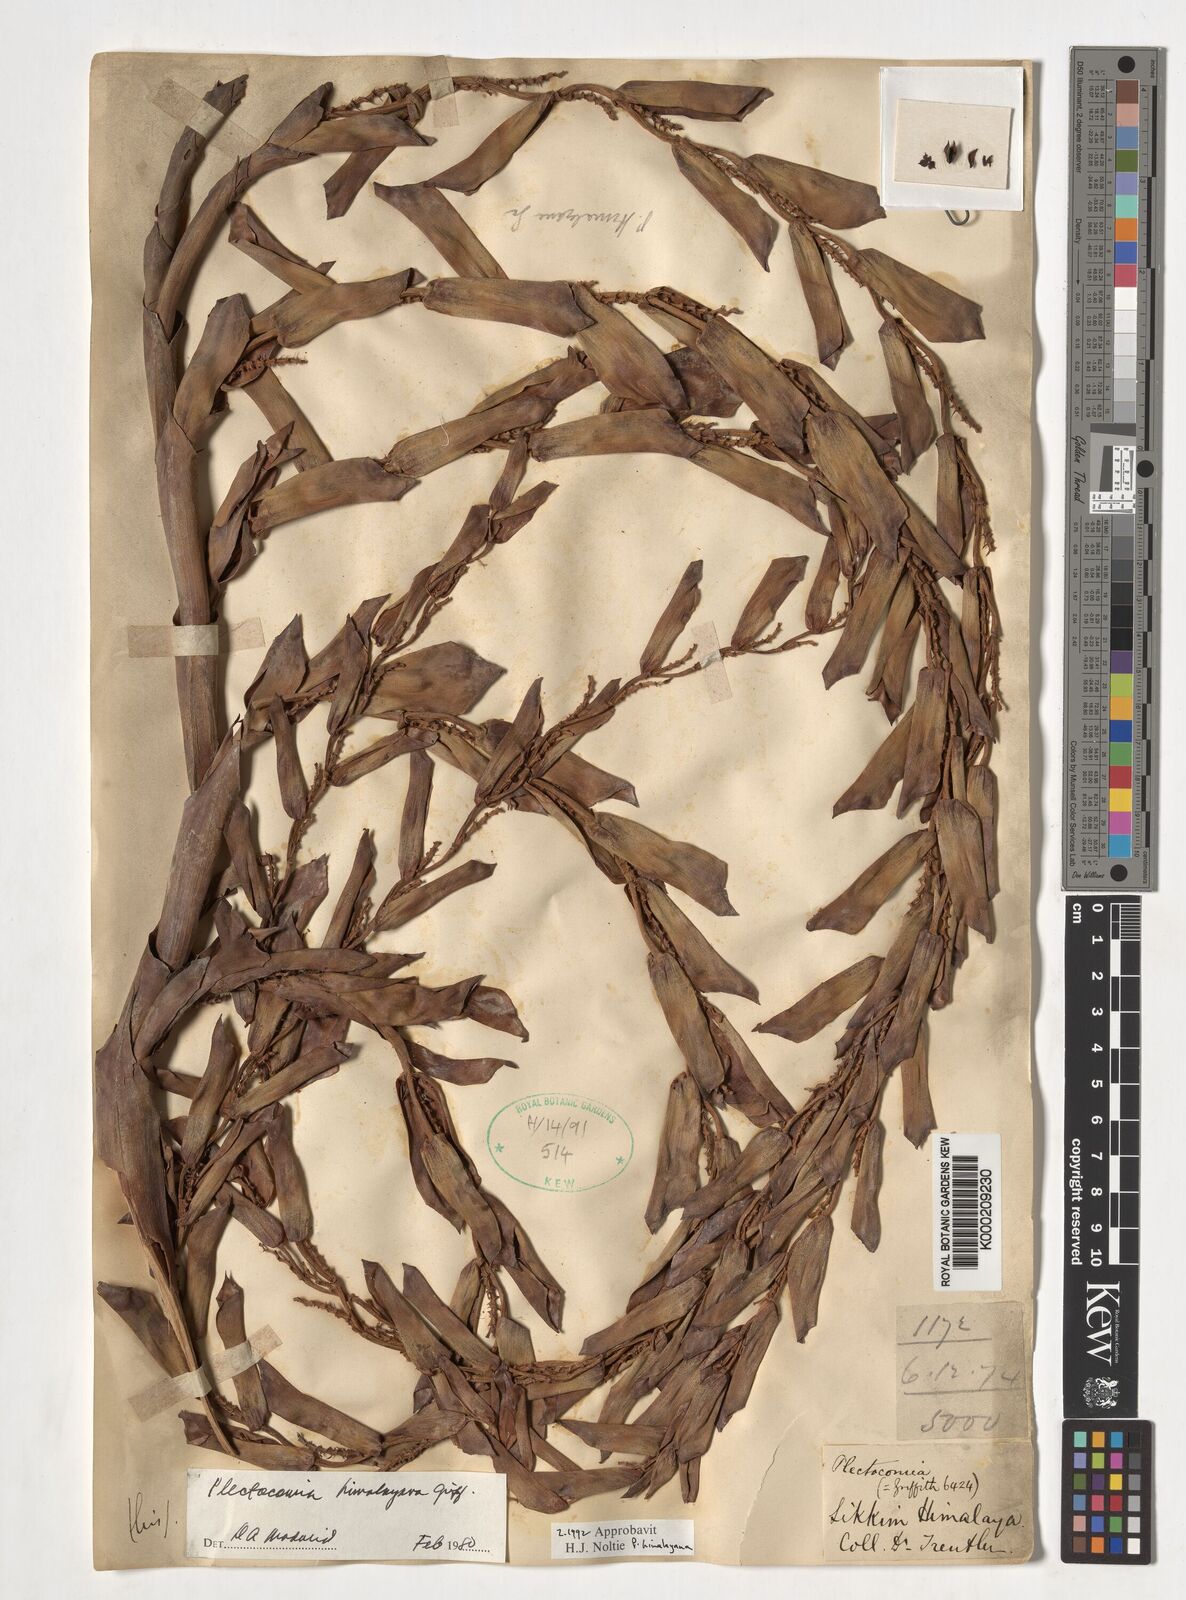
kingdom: Plantae
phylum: Tracheophyta
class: Liliopsida
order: Arecales
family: Arecaceae
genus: Plectocomia
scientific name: Plectocomia himalayana
